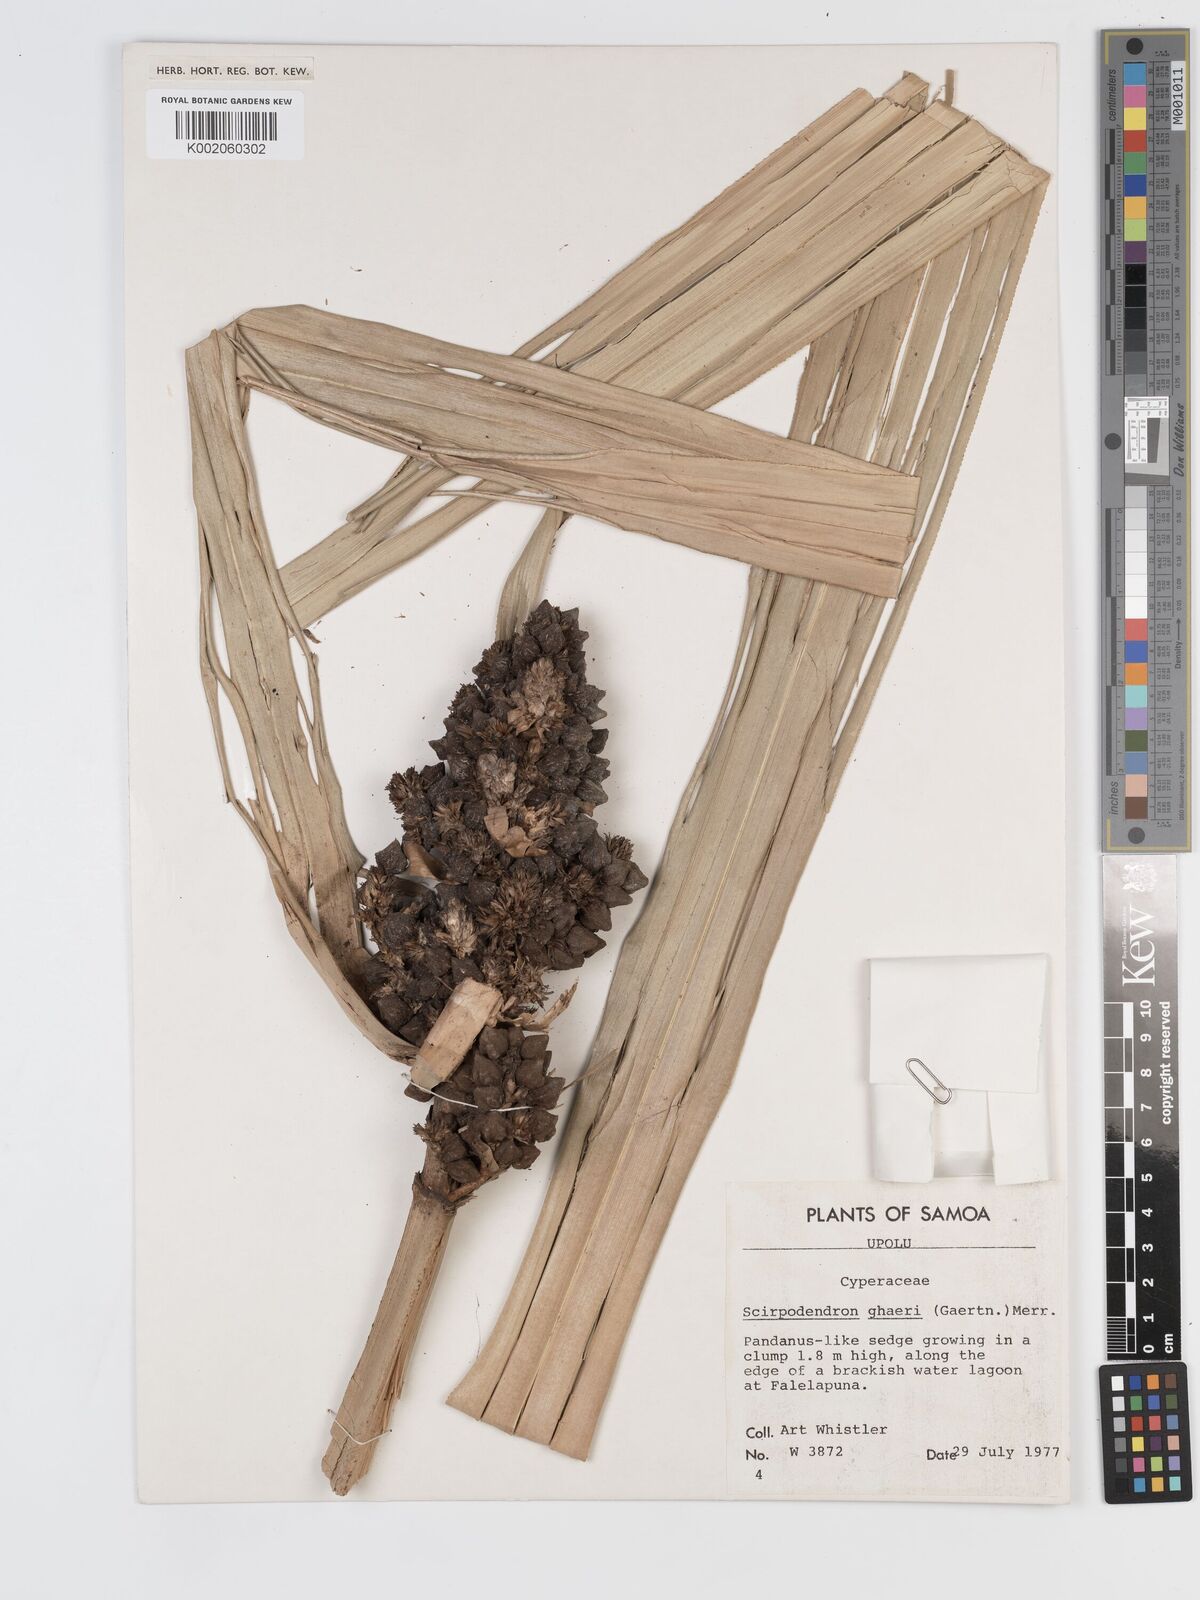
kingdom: Plantae
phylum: Tracheophyta
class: Liliopsida
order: Poales
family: Cyperaceae
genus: Scirpodendron
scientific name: Scirpodendron ghaeri
